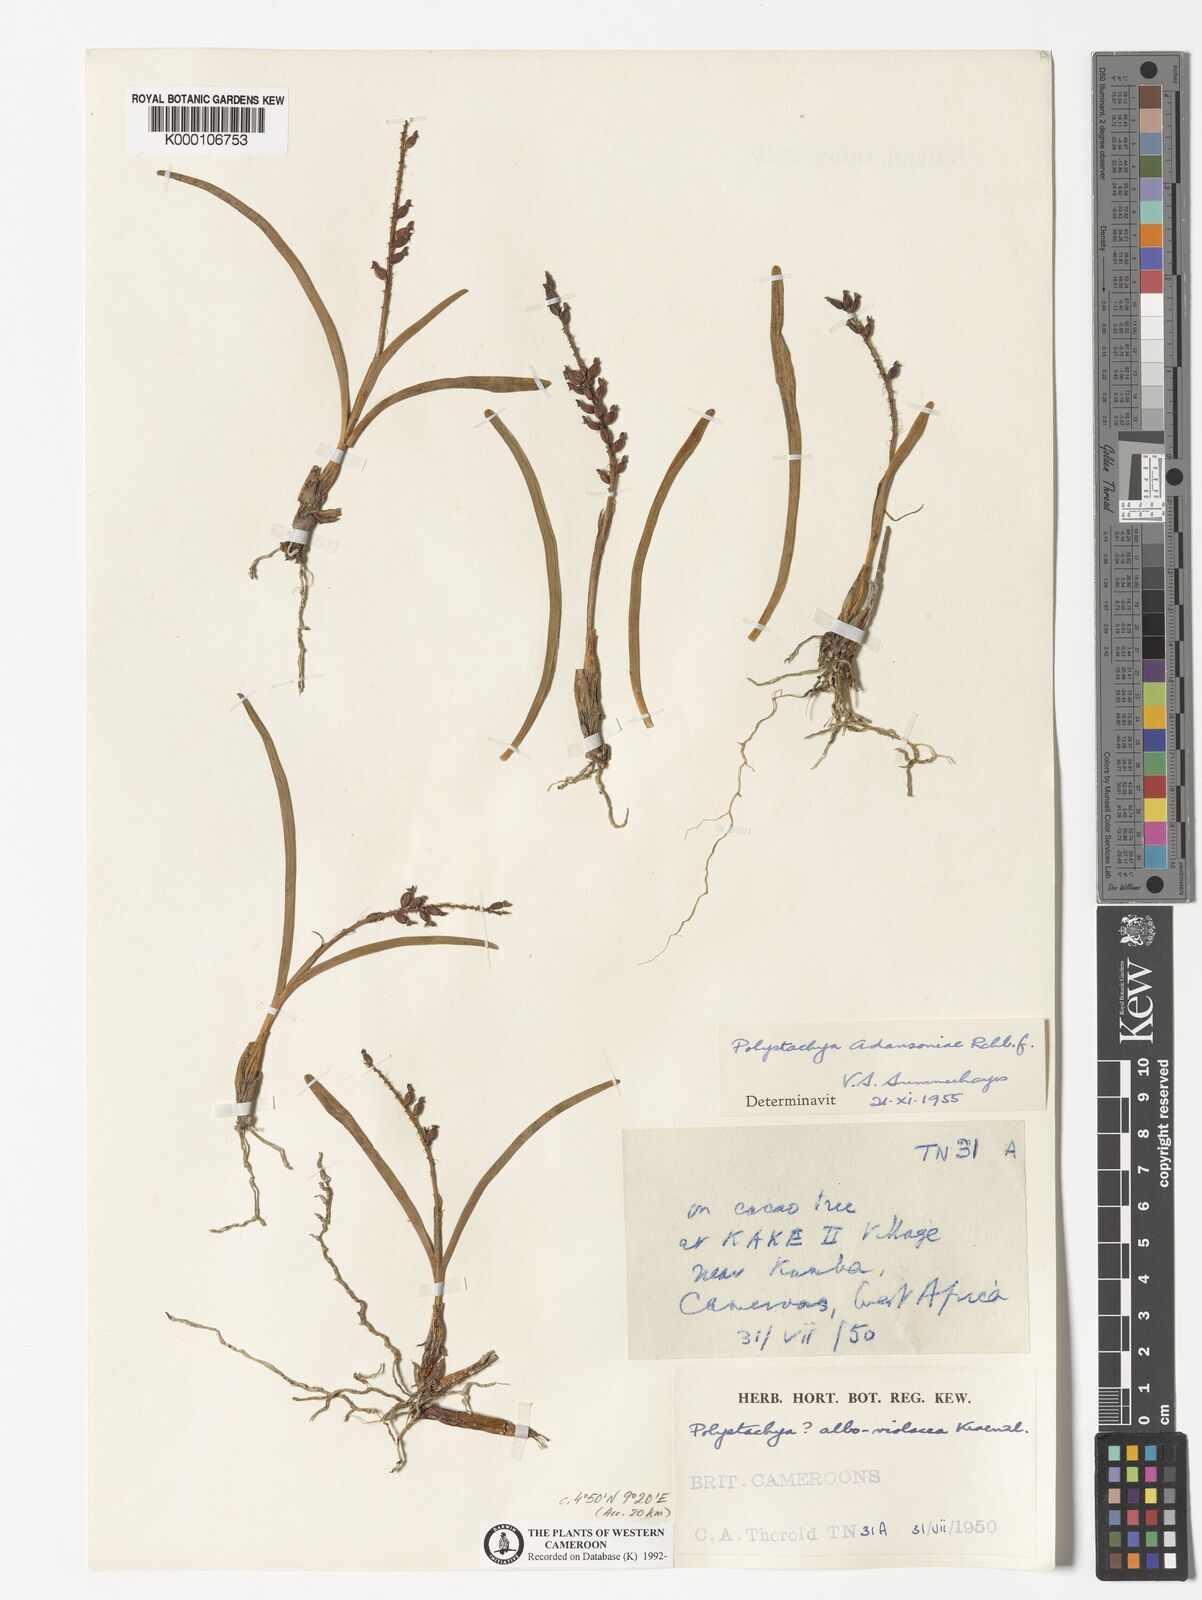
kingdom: Plantae
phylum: Tracheophyta
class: Liliopsida
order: Asparagales
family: Orchidaceae
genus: Polystachya
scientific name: Polystachya adansoniae
